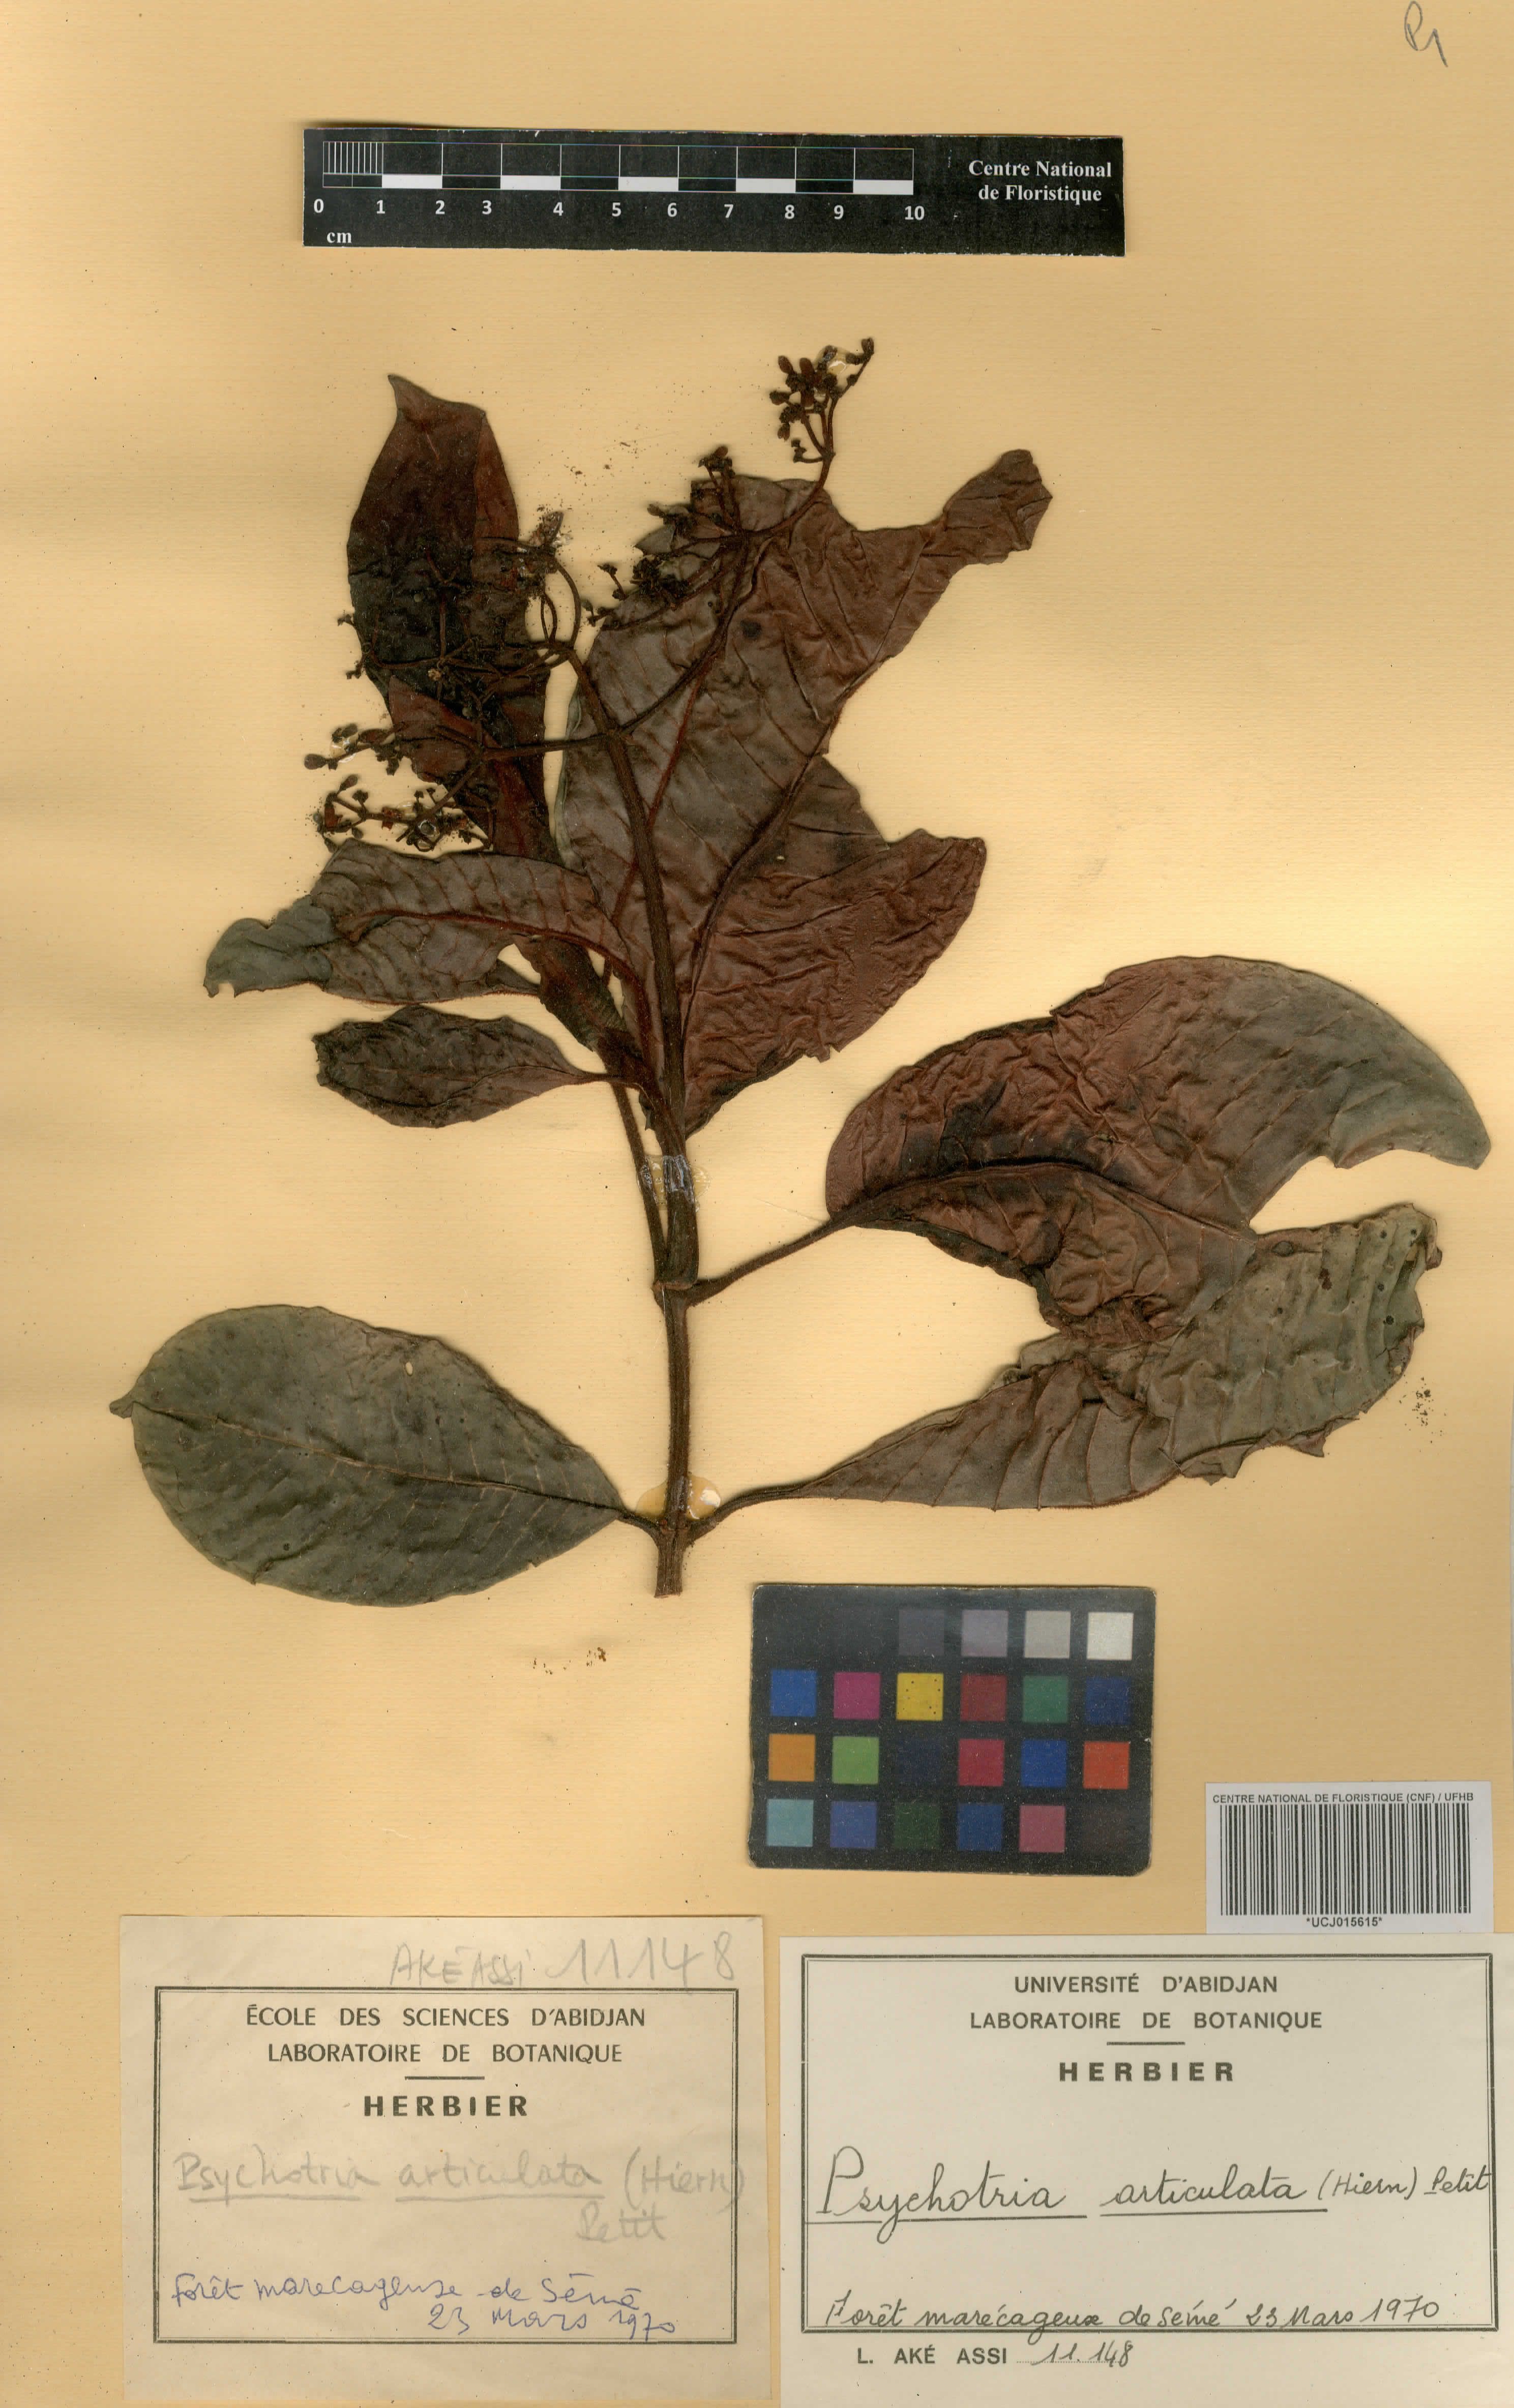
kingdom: Plantae
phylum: Tracheophyta
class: Magnoliopsida
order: Gentianales
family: Rubiaceae
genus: Psychotria
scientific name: Psychotria articulata
